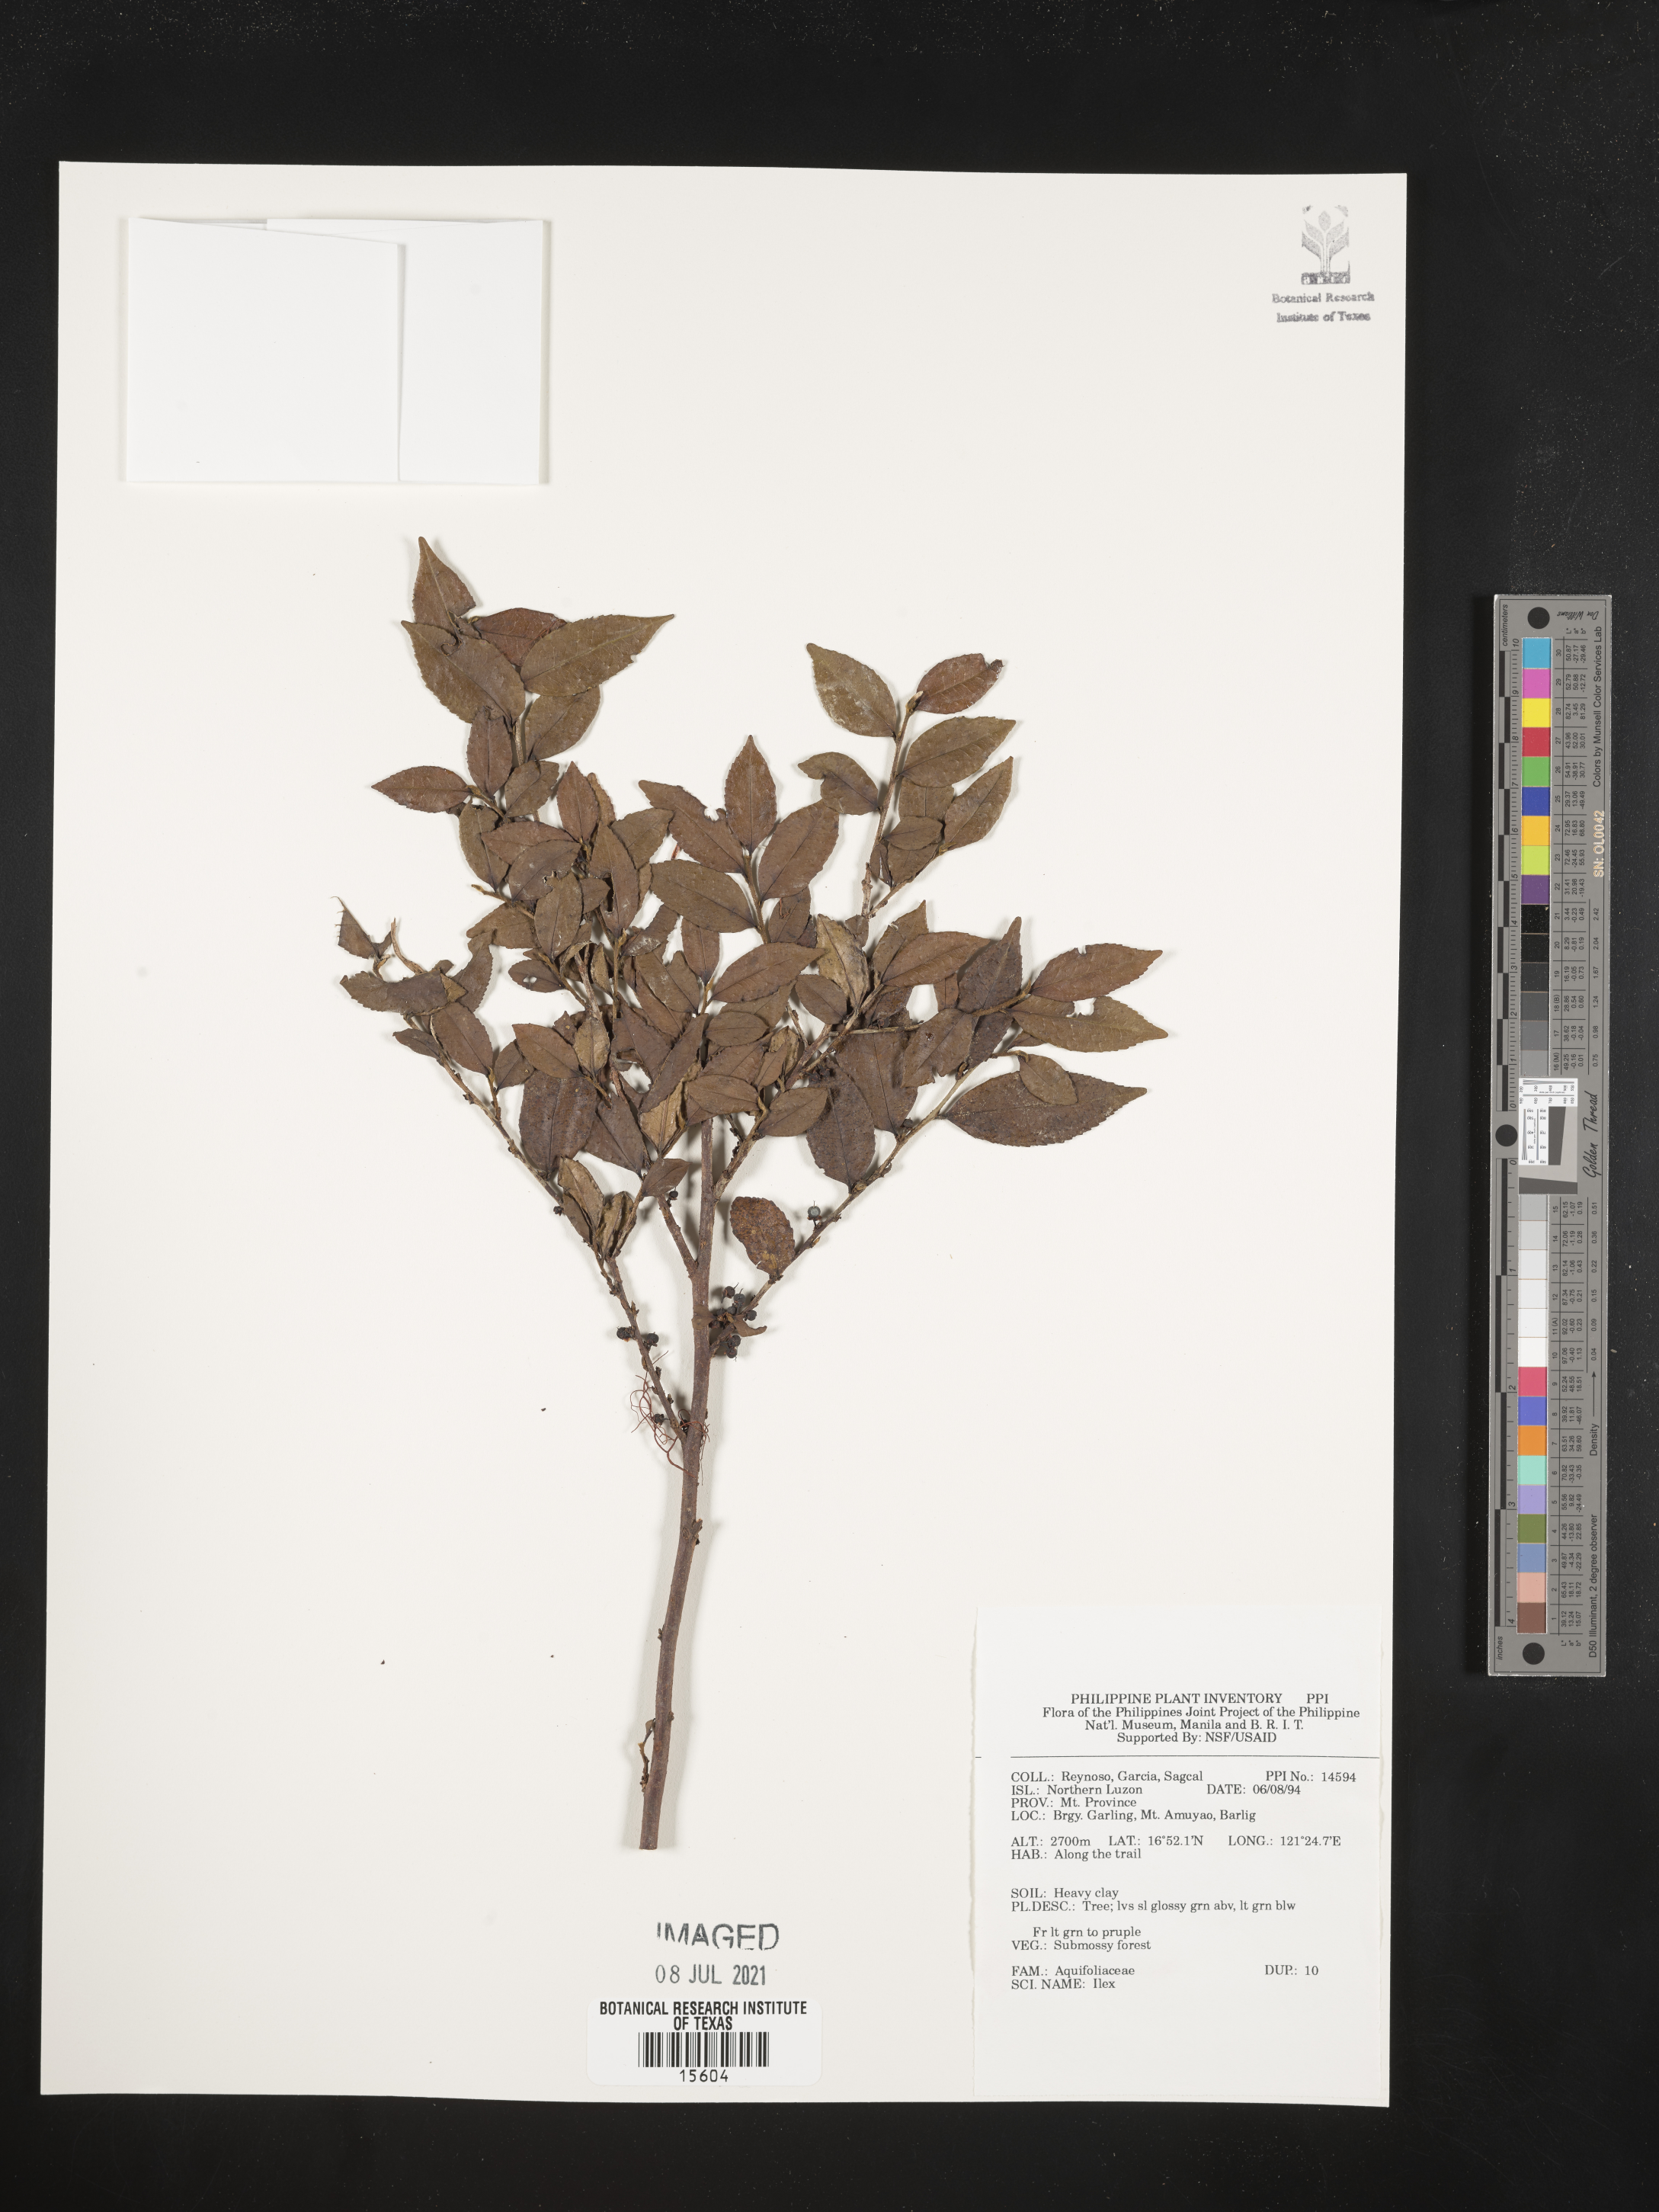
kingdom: Plantae
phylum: Tracheophyta
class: Magnoliopsida
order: Aquifoliales
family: Aquifoliaceae
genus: Ilex
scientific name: Ilex
